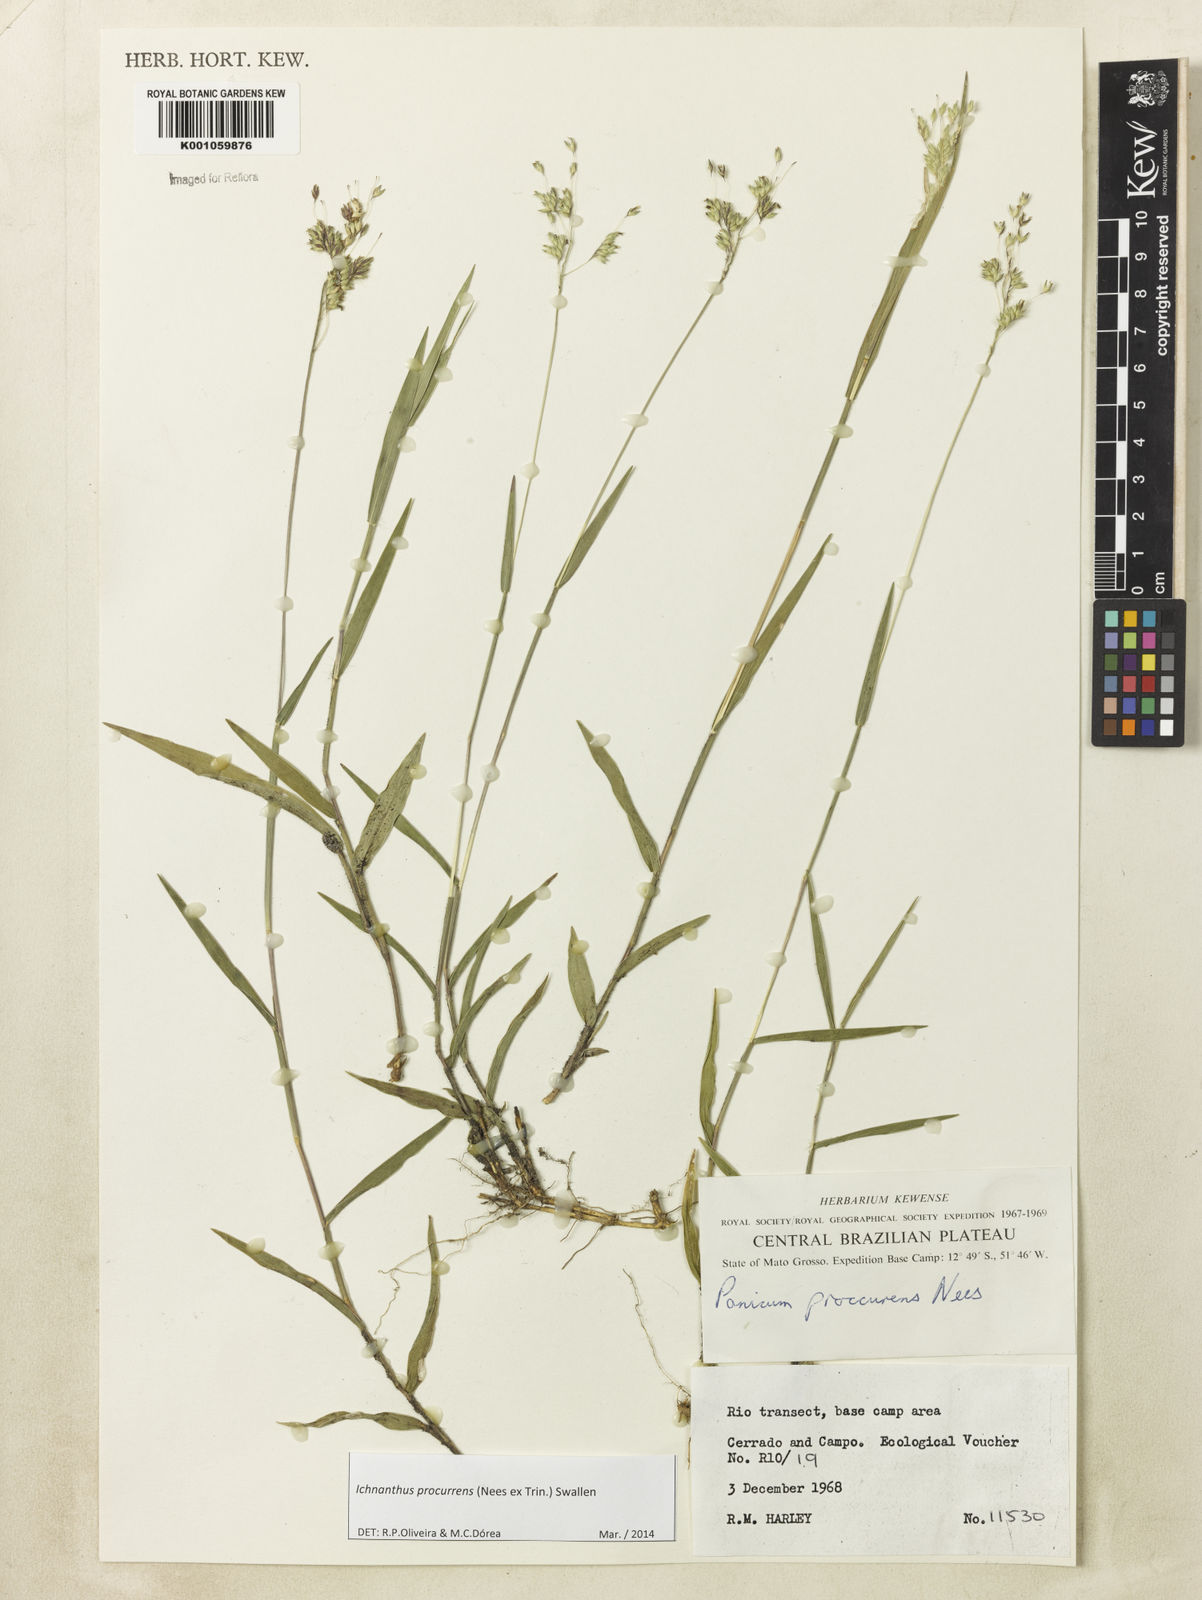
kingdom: Plantae
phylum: Tracheophyta
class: Liliopsida
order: Poales
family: Poaceae
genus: Oedochloa
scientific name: Oedochloa procurrens
